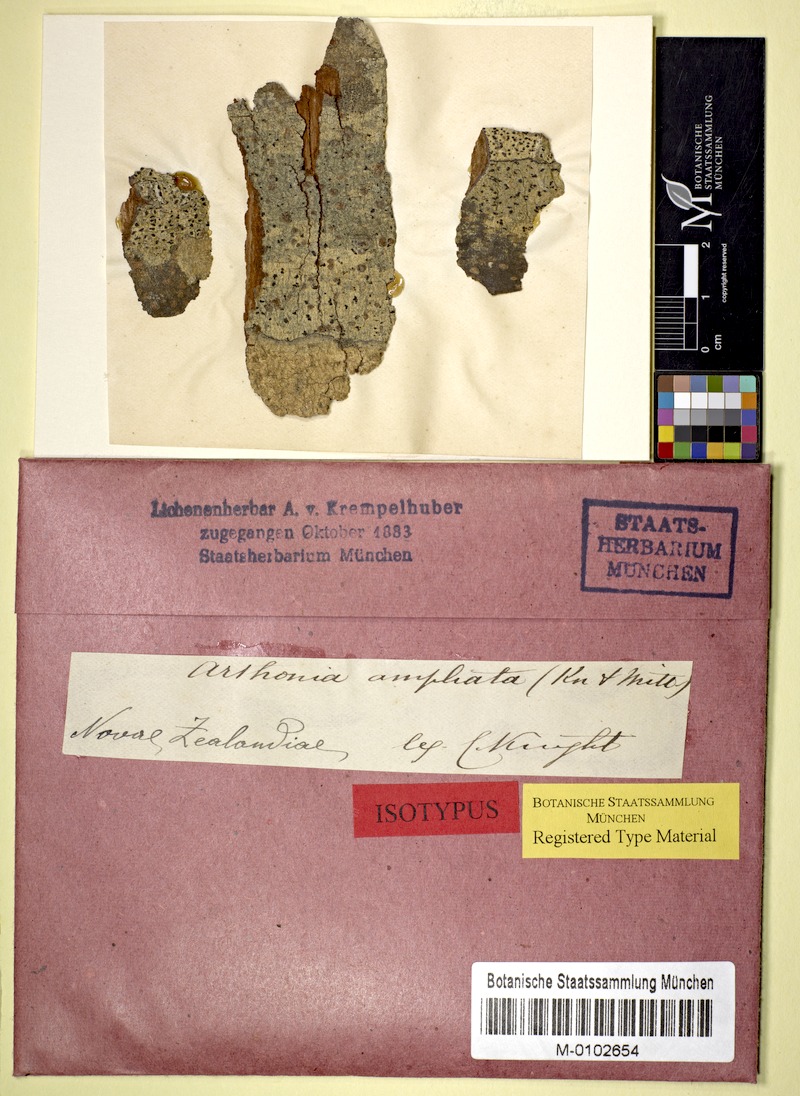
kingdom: Fungi
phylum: Ascomycota
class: Arthoniomycetes
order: Arthoniales
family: Arthoniaceae
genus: Arthothelium
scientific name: Arthothelium ampliatum
